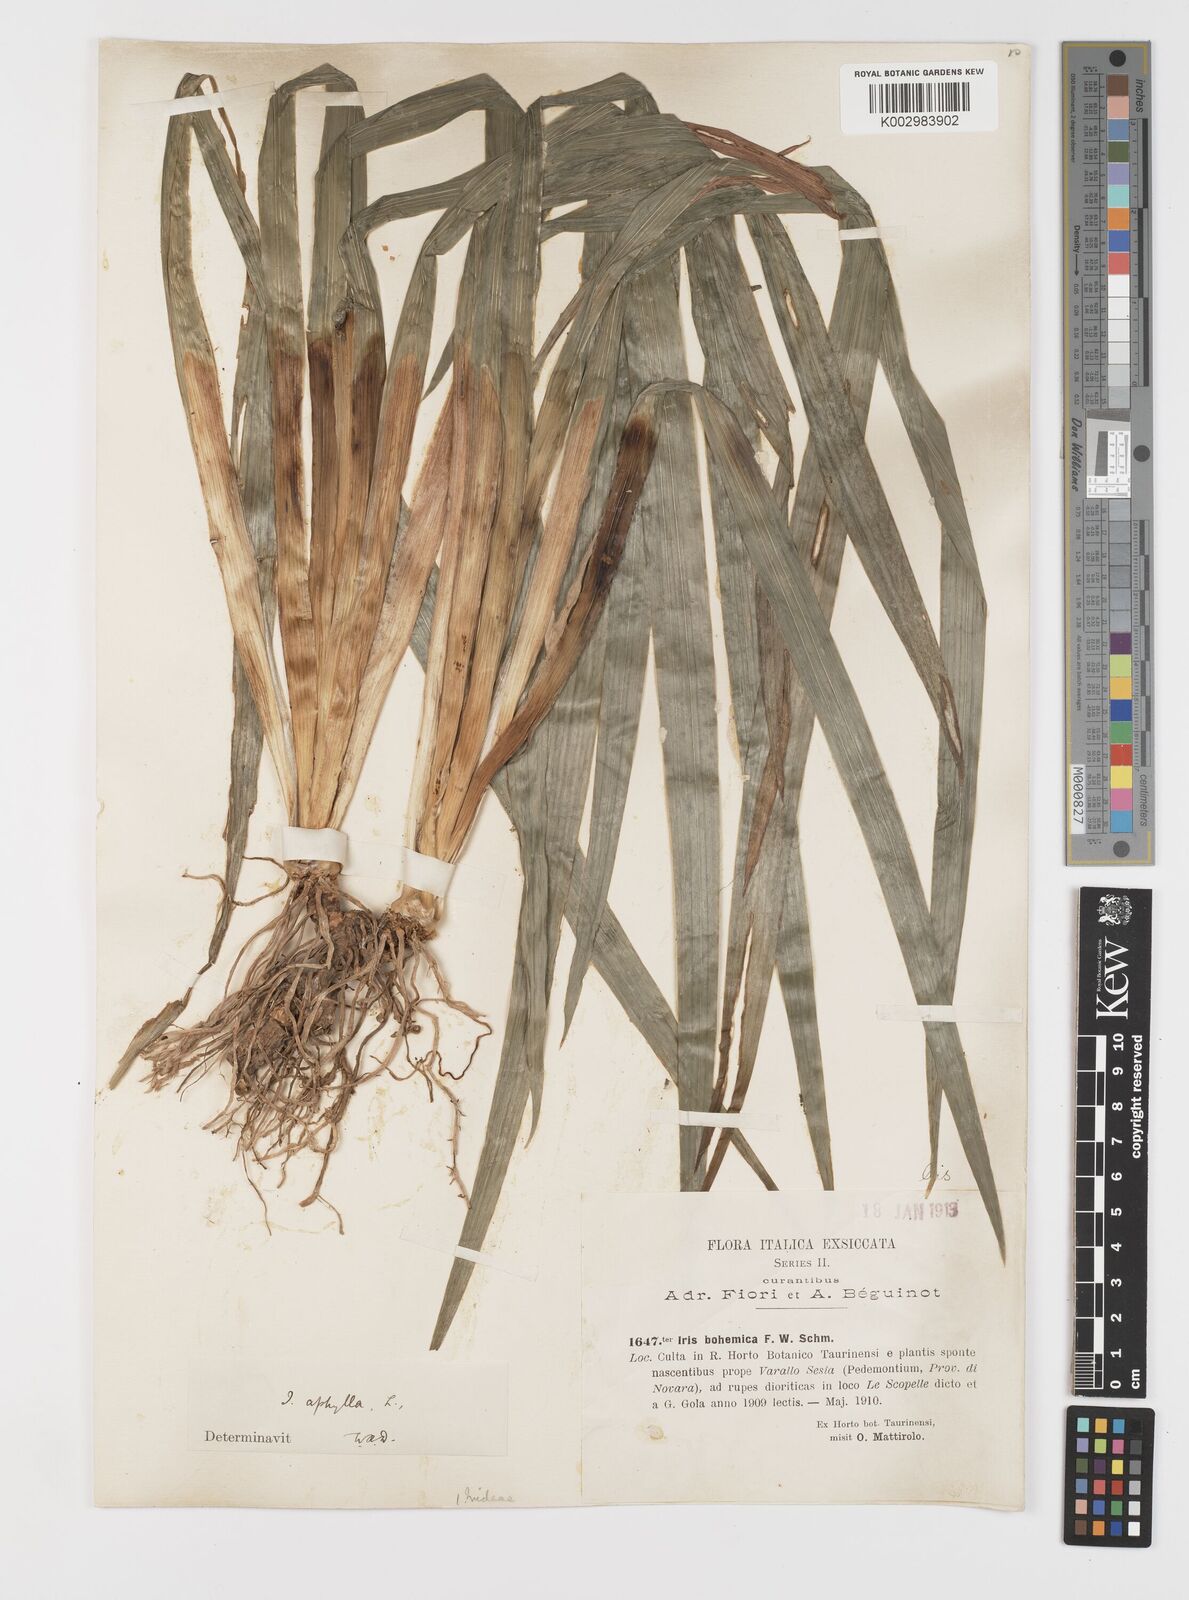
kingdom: Plantae
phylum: Tracheophyta
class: Liliopsida
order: Asparagales
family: Iridaceae
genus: Iris
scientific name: Iris perrieri
